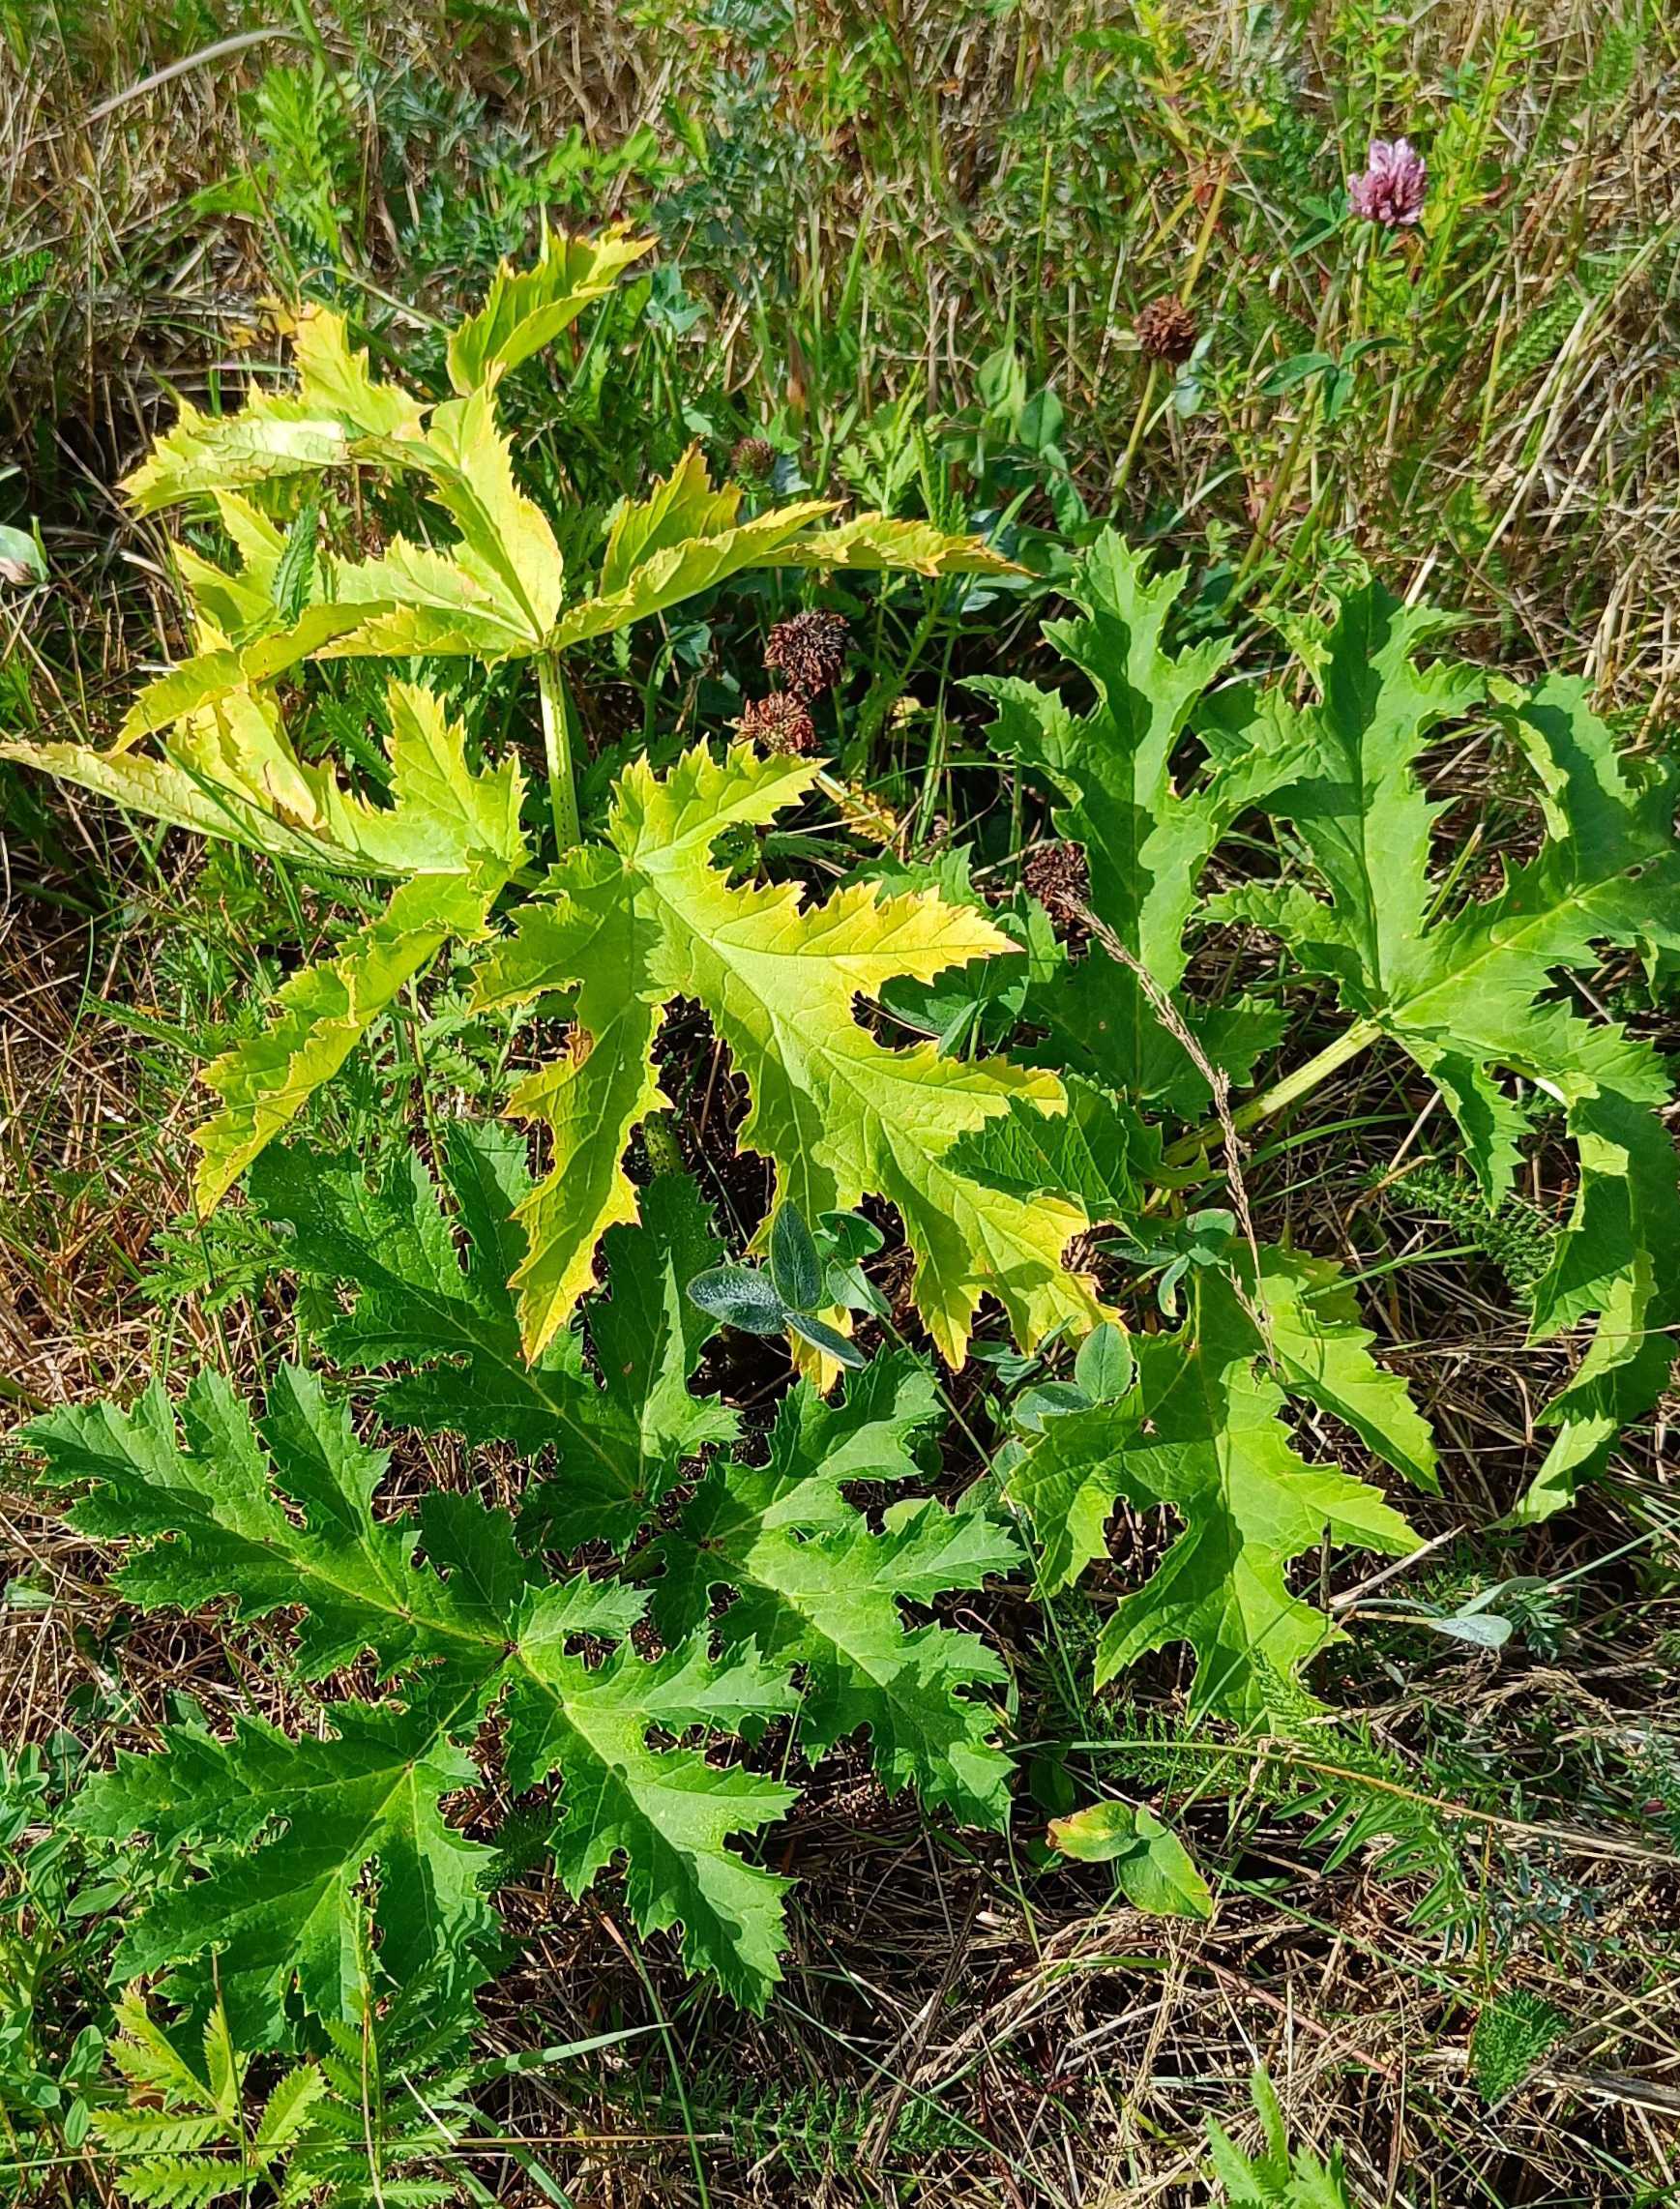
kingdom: Plantae
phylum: Tracheophyta
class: Magnoliopsida
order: Apiales
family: Apiaceae
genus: Heracleum
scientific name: Heracleum mantegazzianum
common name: Kæmpe-bjørneklo
